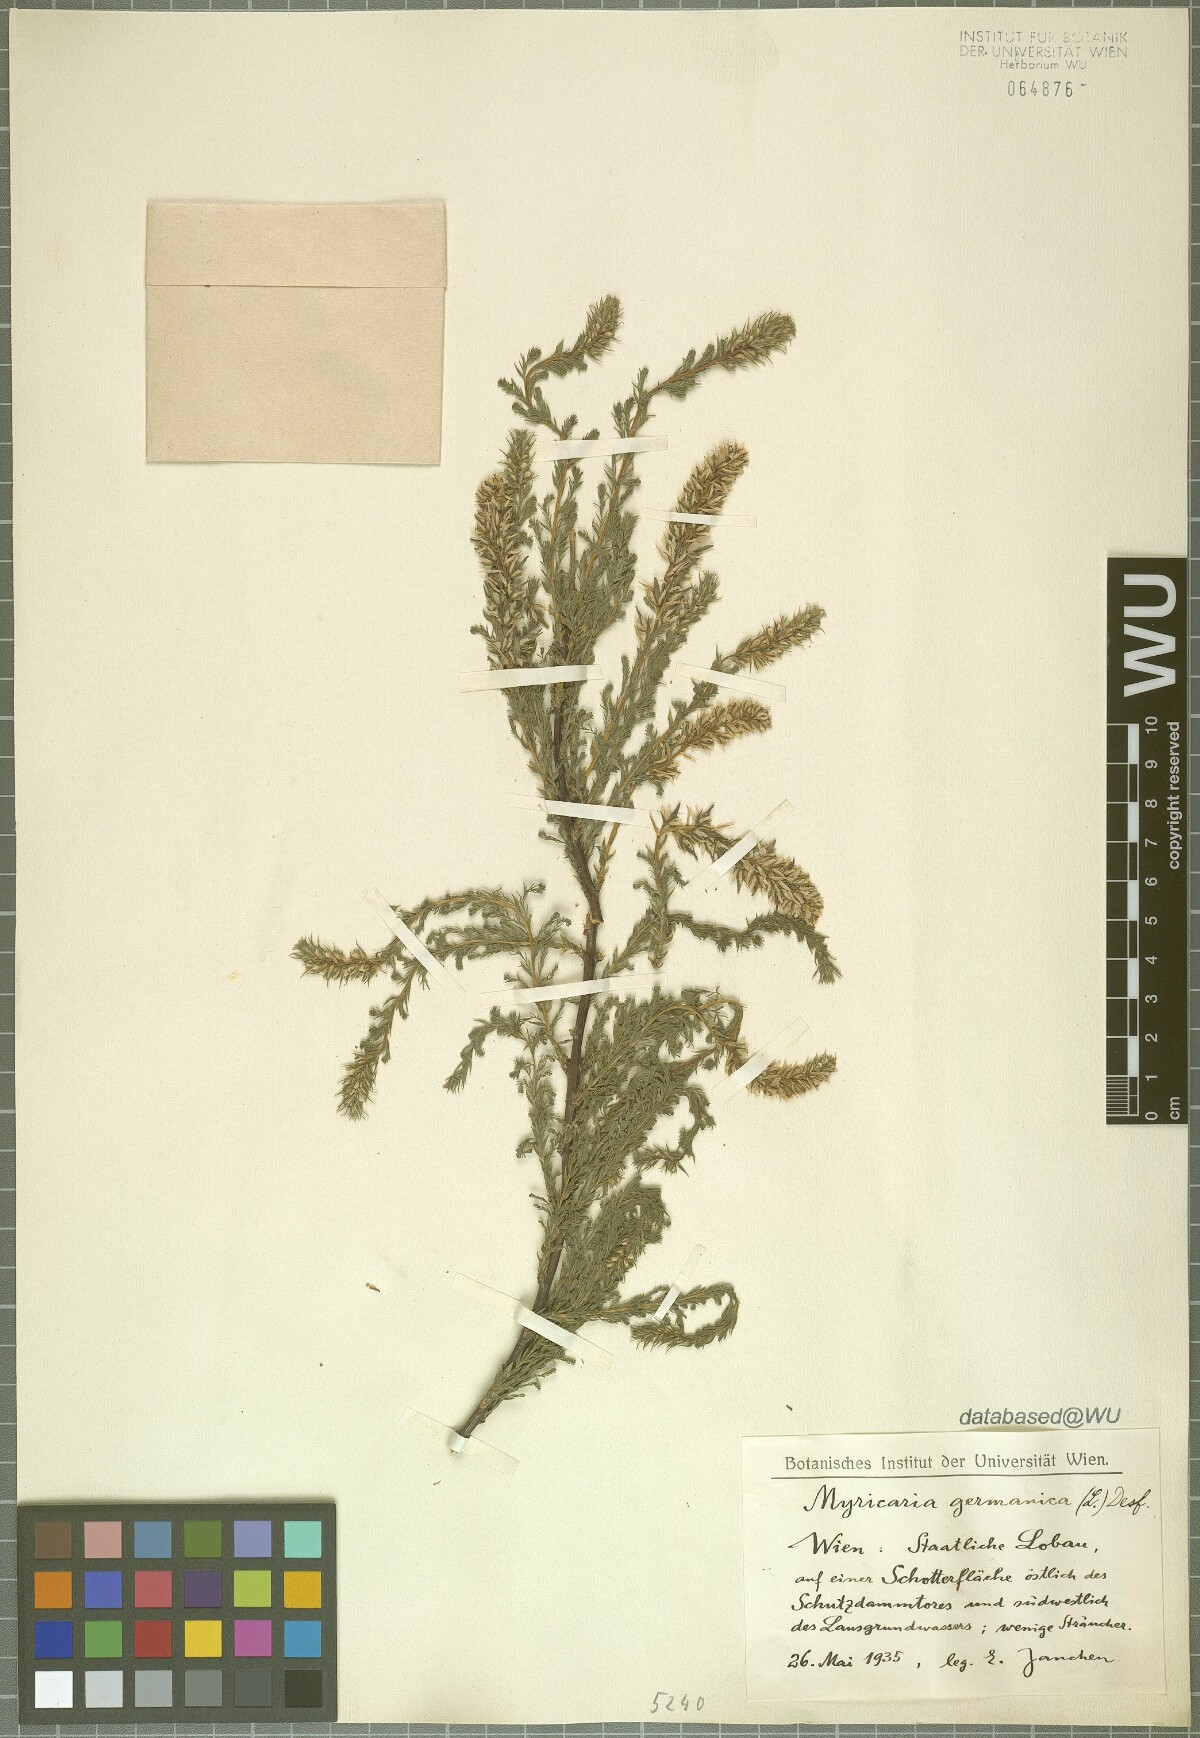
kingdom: Plantae
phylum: Tracheophyta
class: Magnoliopsida
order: Caryophyllales
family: Tamaricaceae
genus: Myricaria
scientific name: Myricaria germanica
